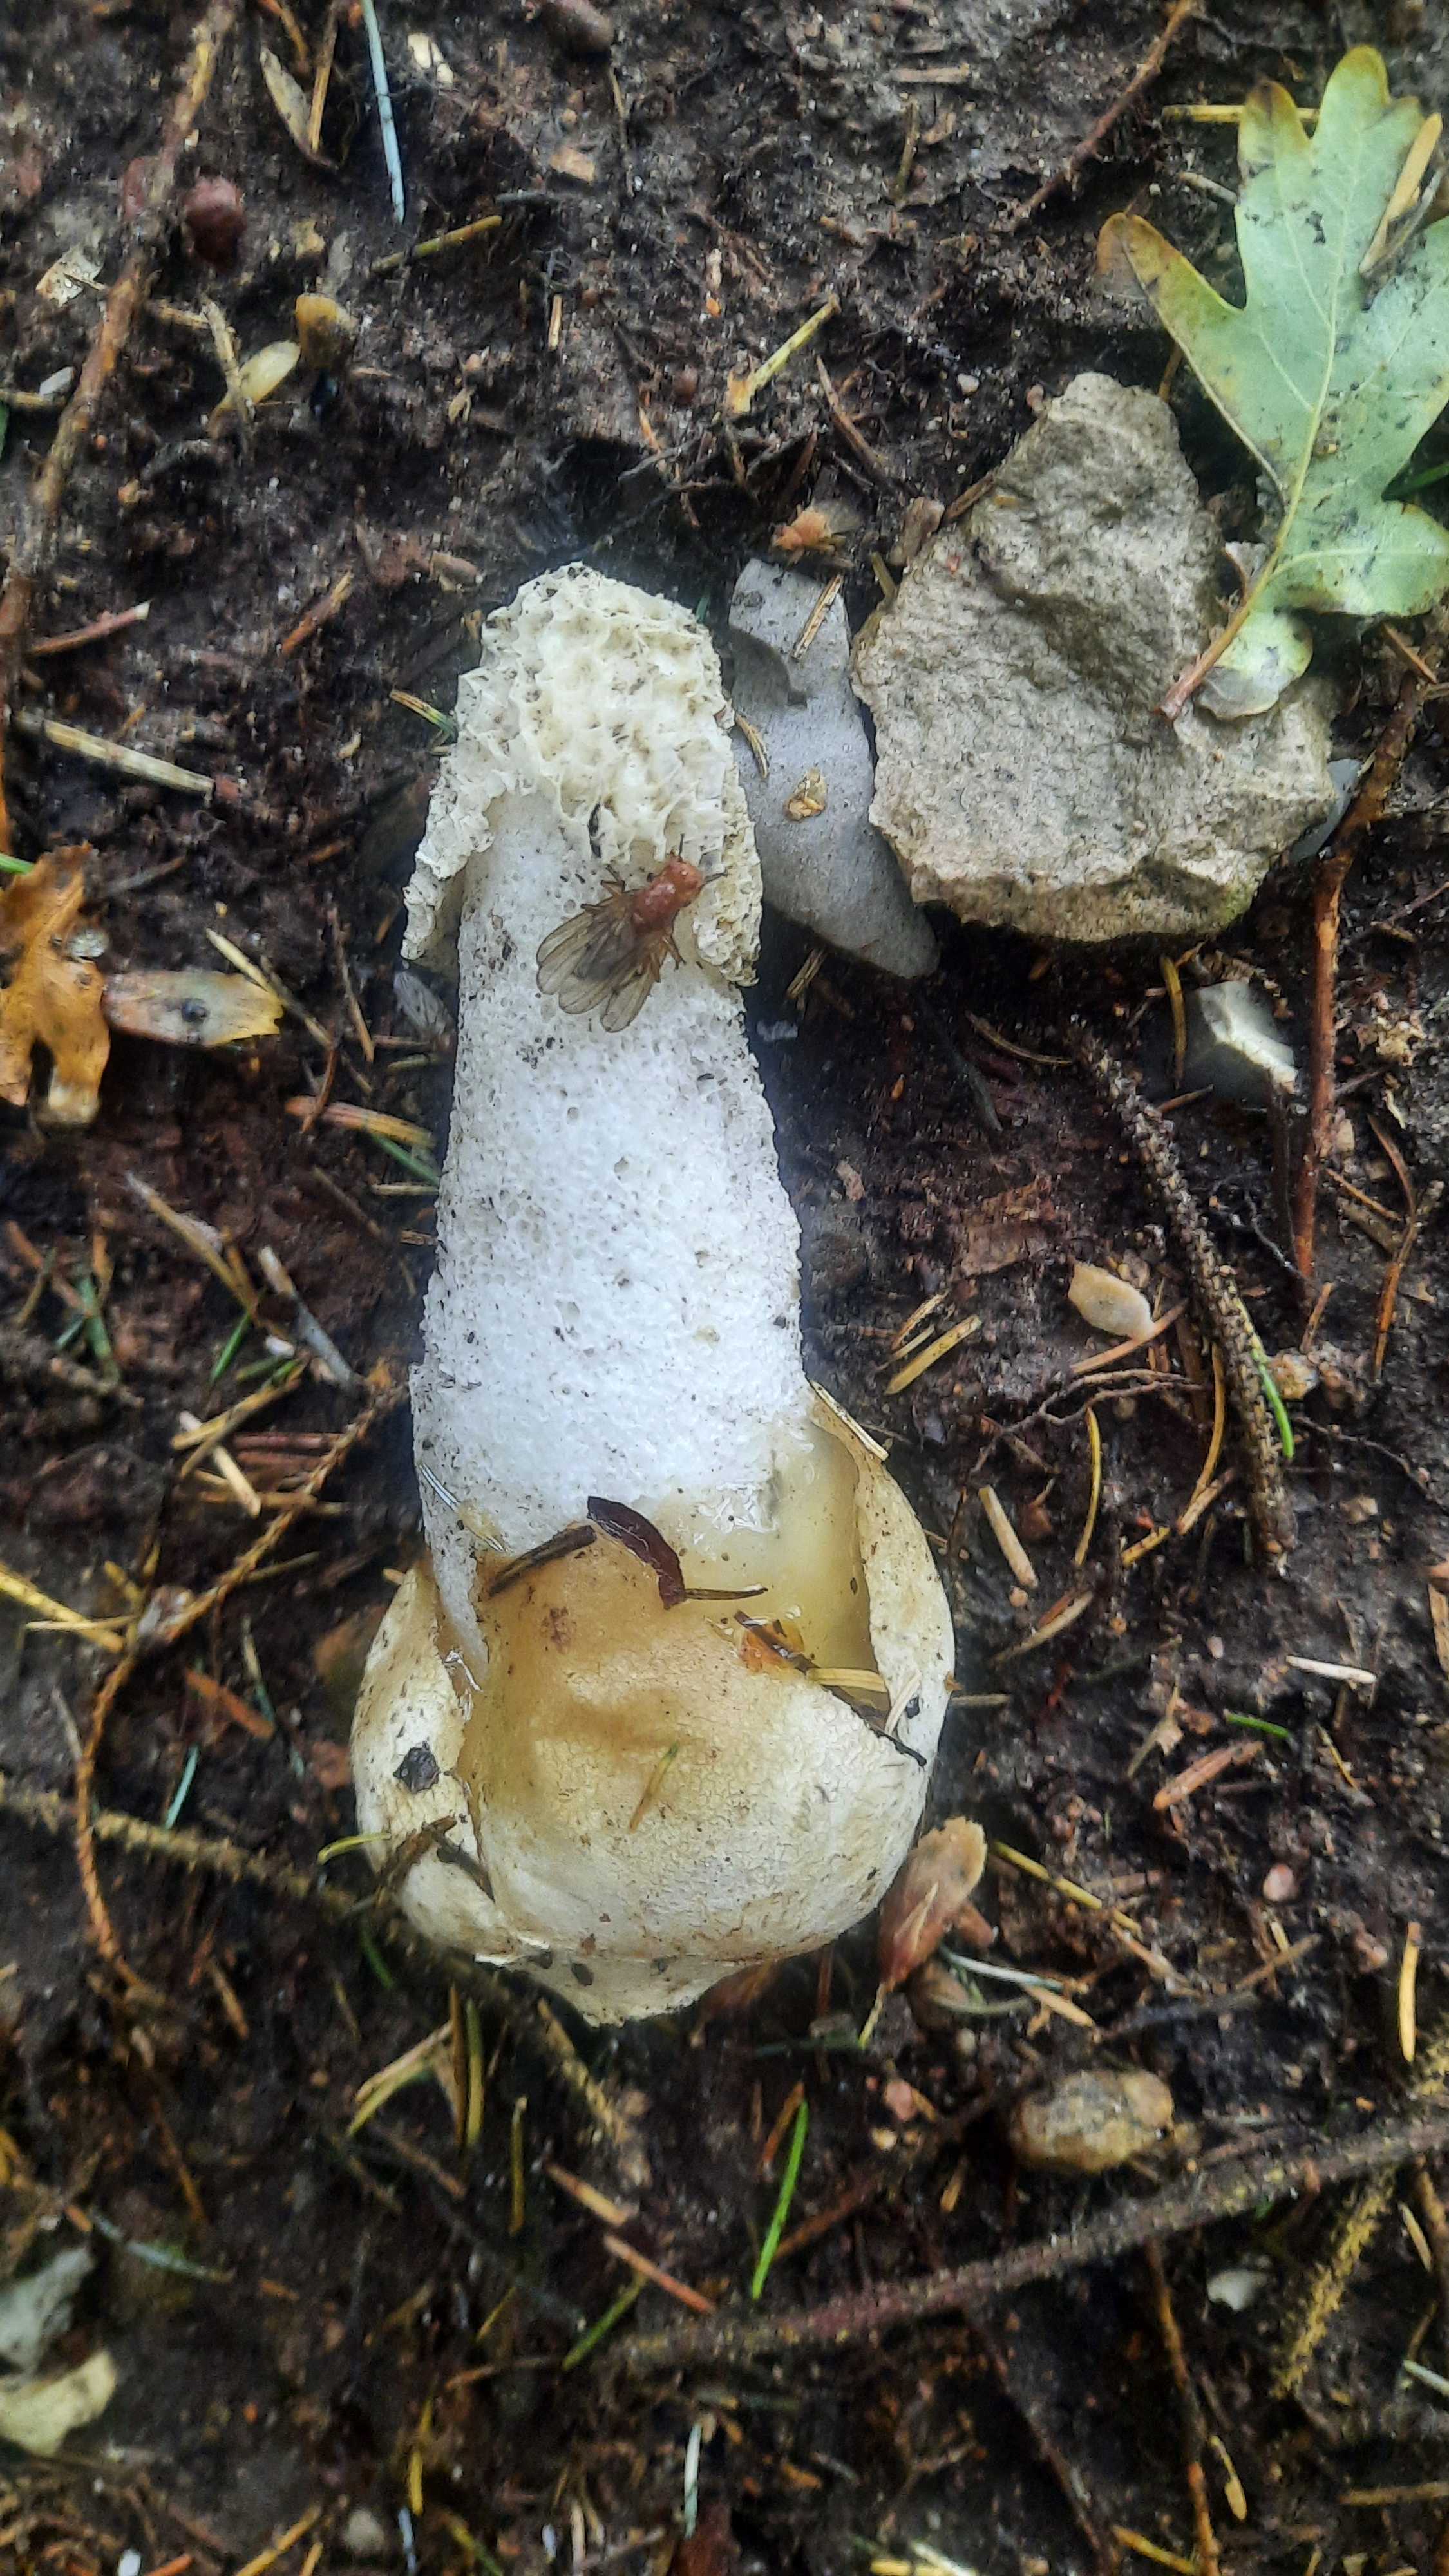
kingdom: Fungi
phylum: Basidiomycota
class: Agaricomycetes
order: Phallales
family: Phallaceae
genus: Phallus
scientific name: Phallus impudicus
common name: almindelig stinksvamp
